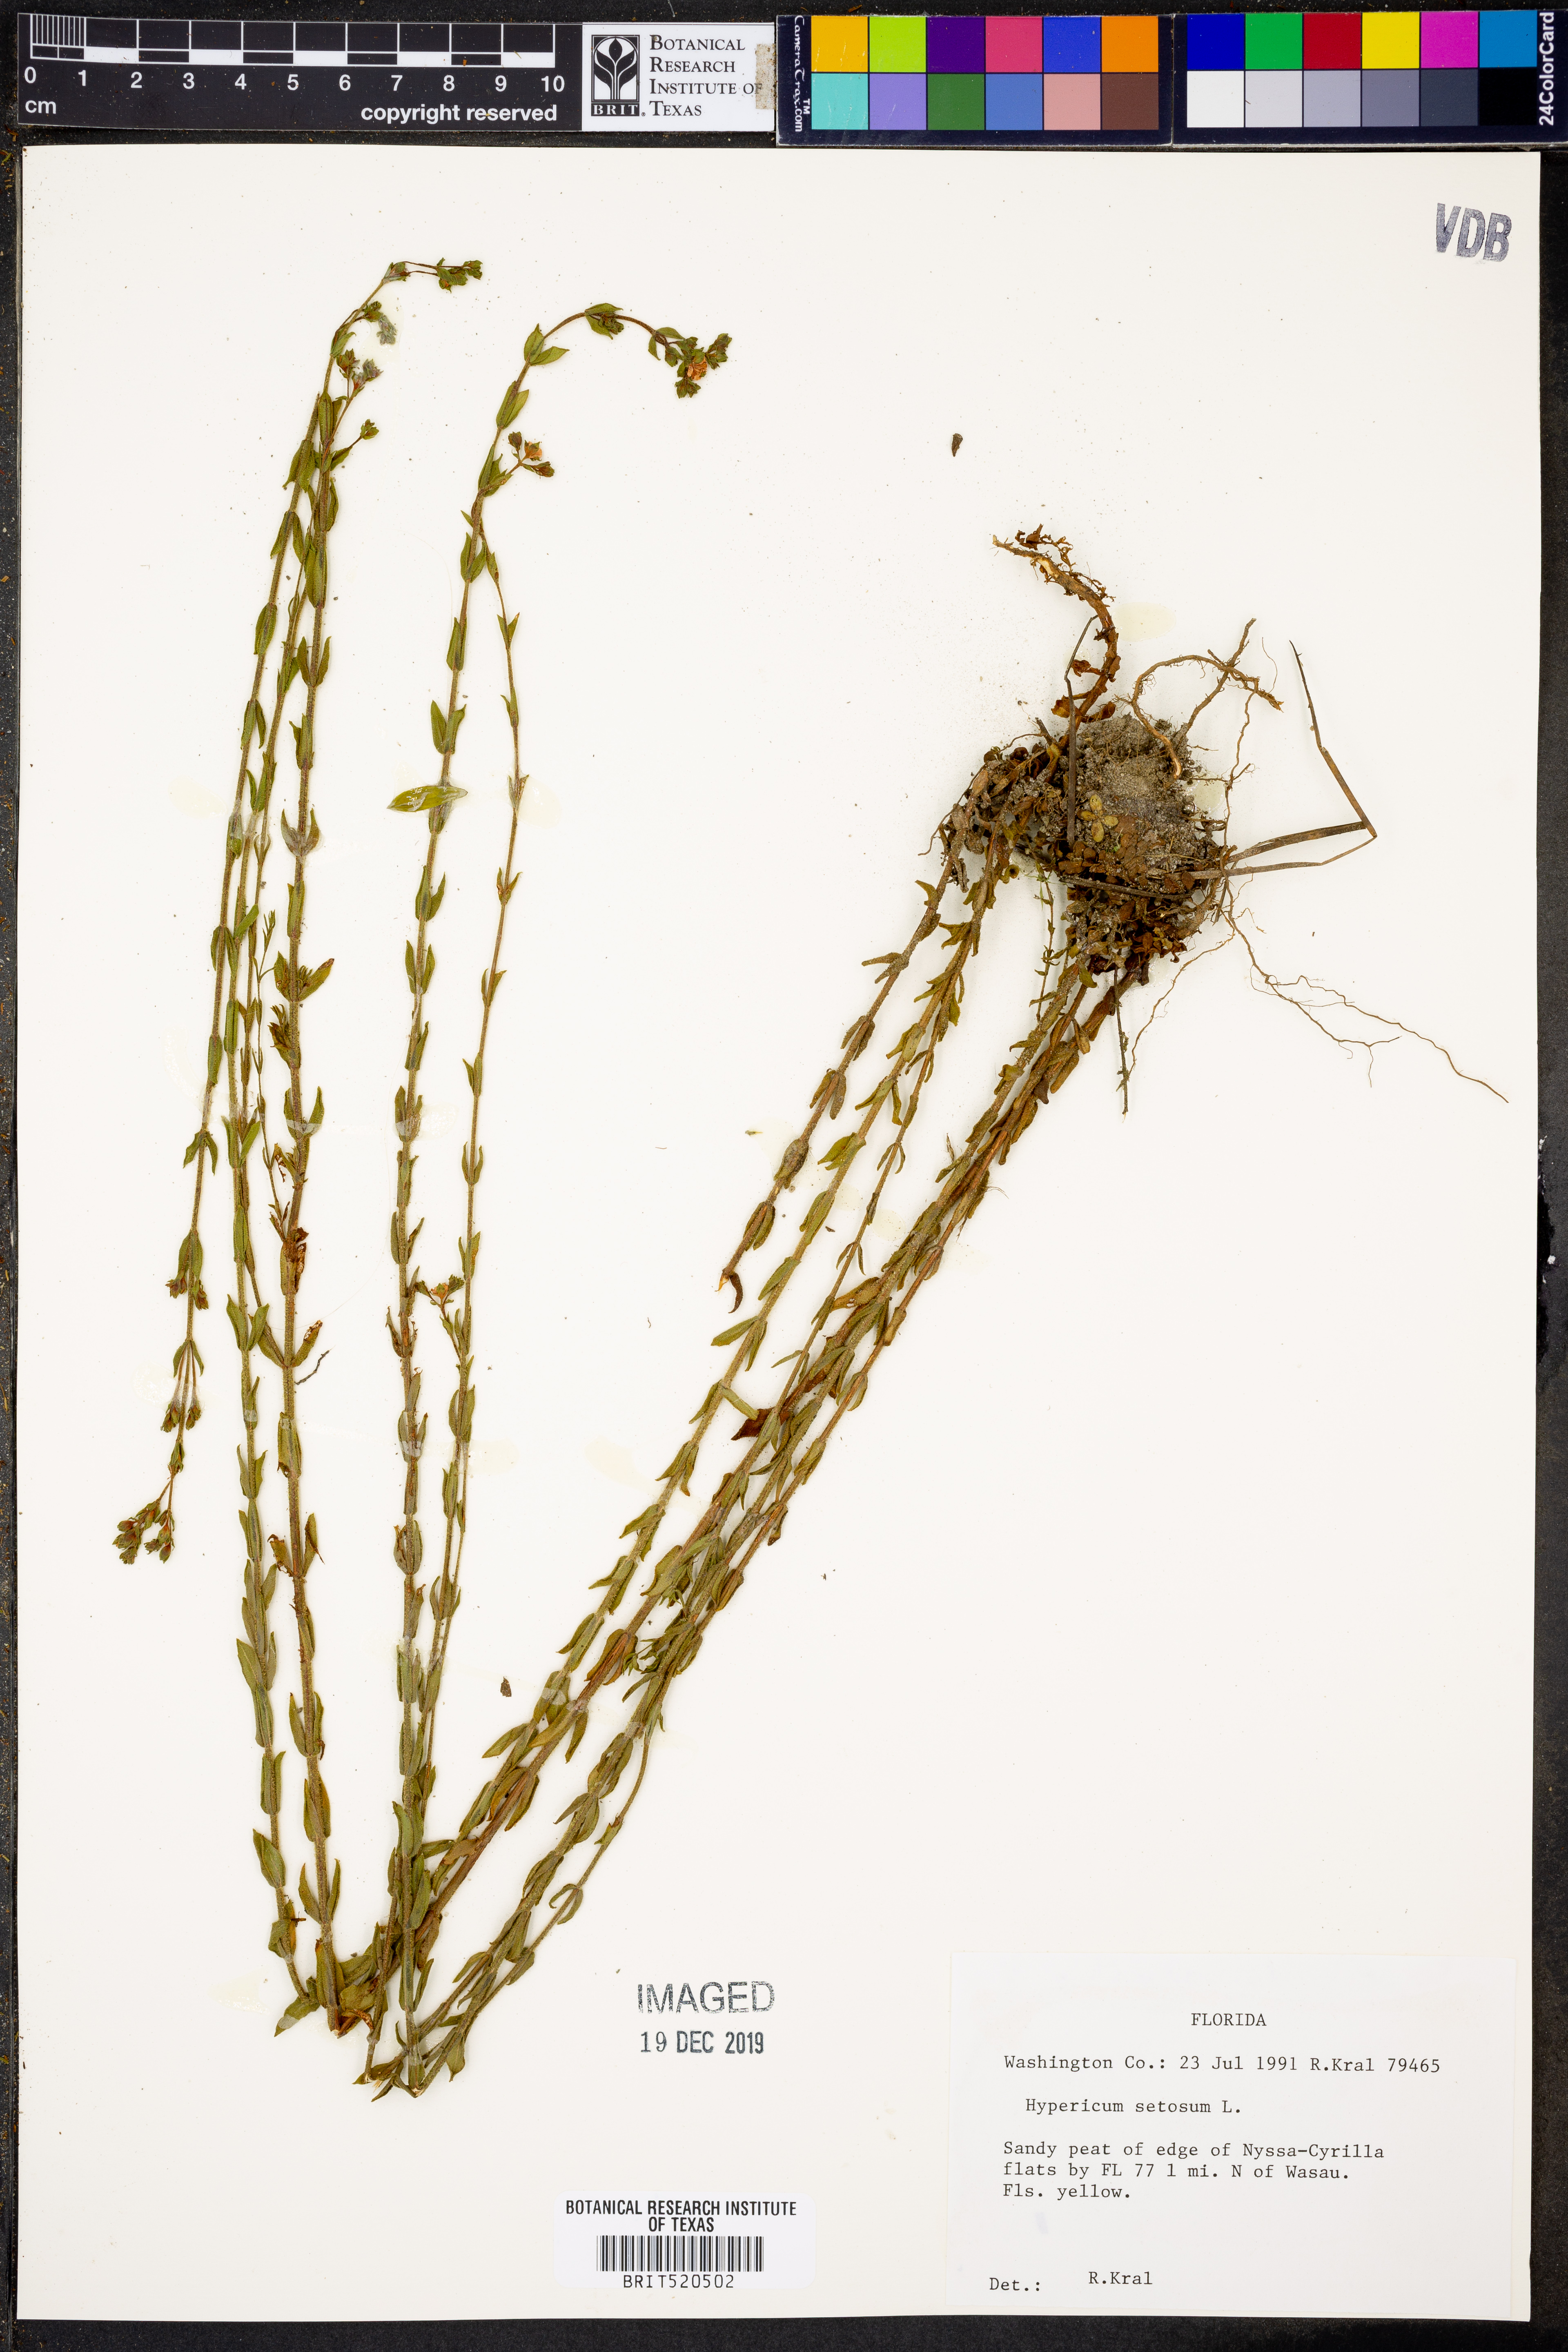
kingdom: Plantae
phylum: Tracheophyta
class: Magnoliopsida
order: Malpighiales
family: Hypericaceae
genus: Hypericum
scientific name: Hypericum setosum
